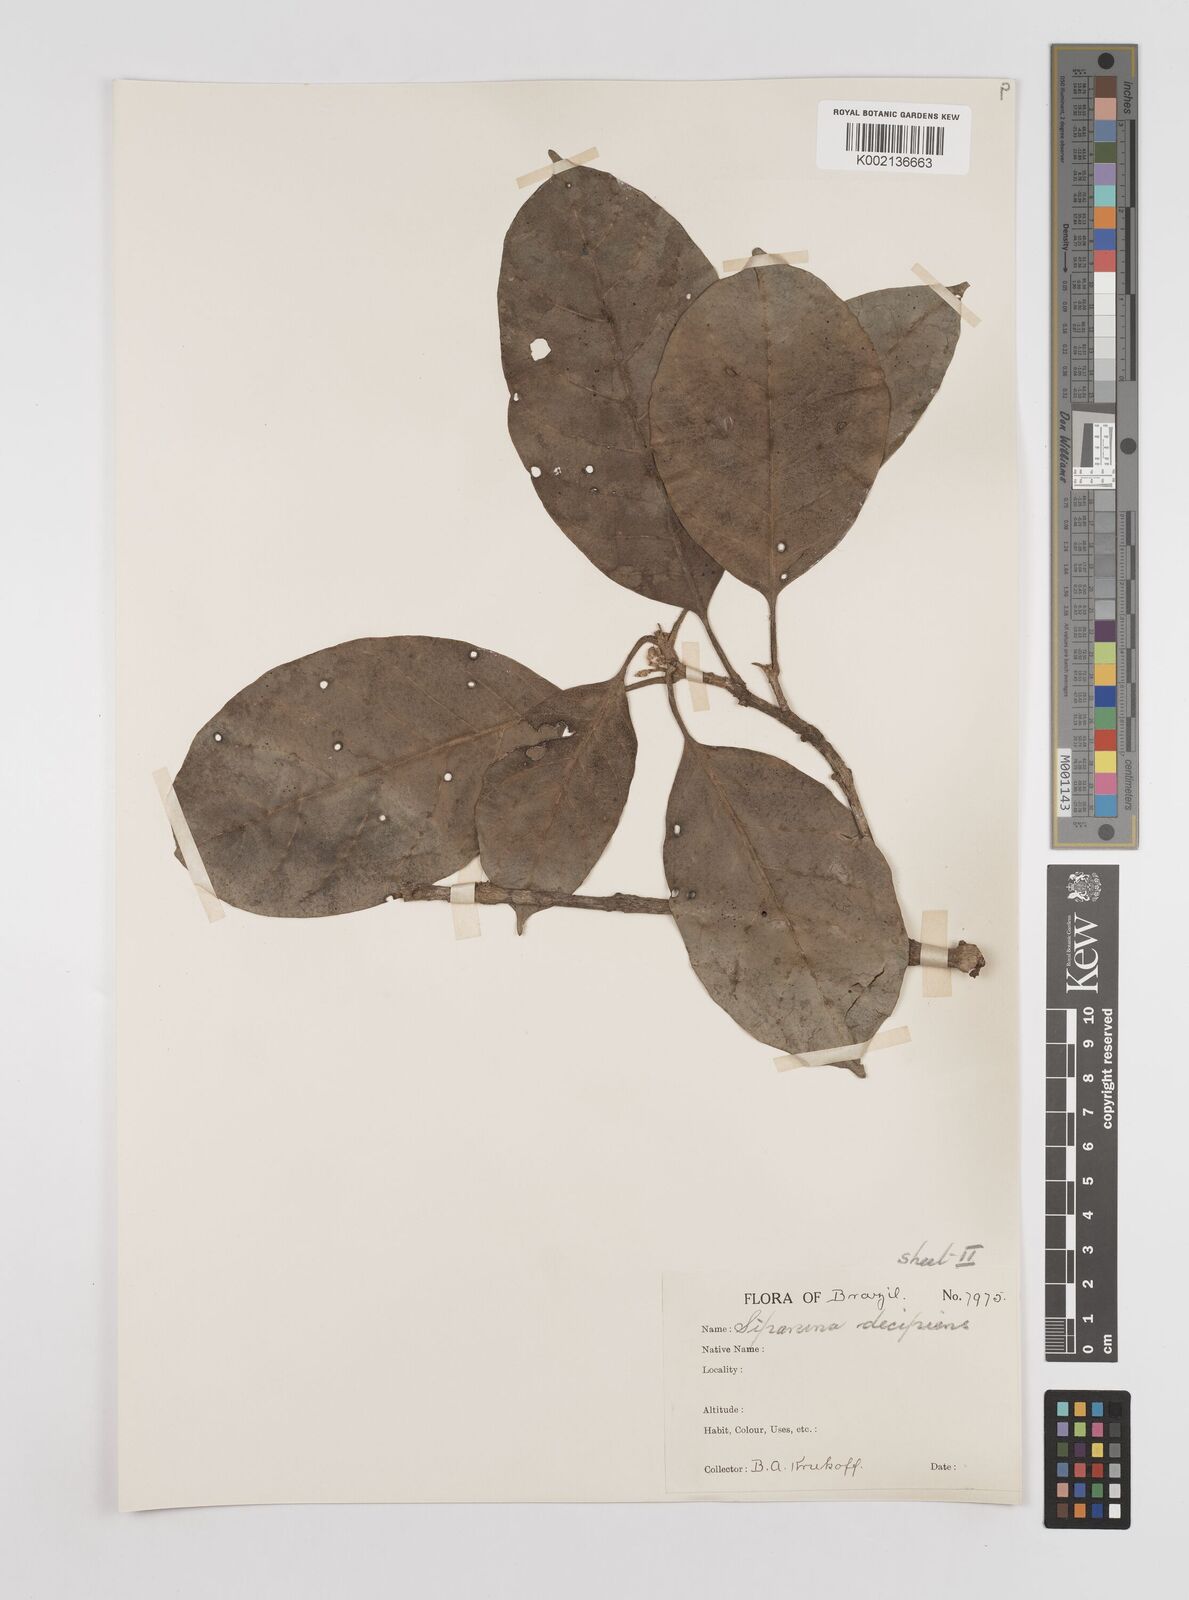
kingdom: Plantae
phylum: Tracheophyta
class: Magnoliopsida
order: Laurales
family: Siparunaceae
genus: Siparuna
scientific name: Siparuna decipiens
